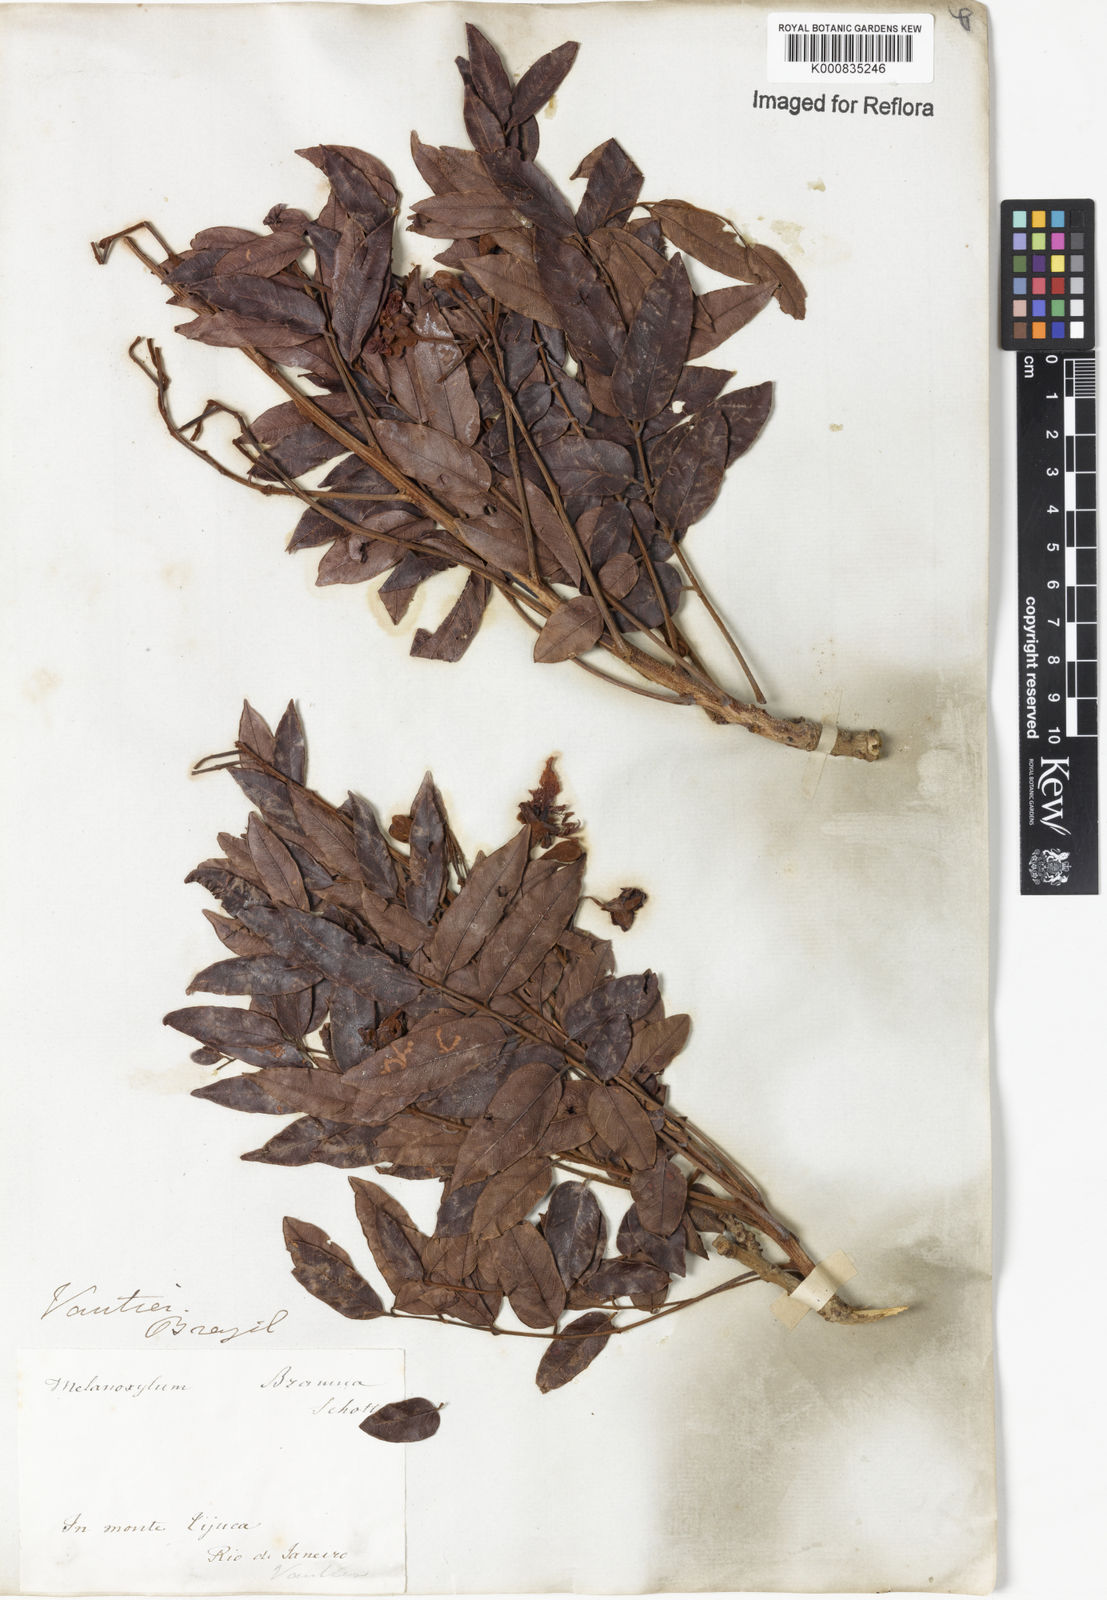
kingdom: Plantae
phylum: Tracheophyta
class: Magnoliopsida
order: Fabales
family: Fabaceae
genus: Melanoxylum
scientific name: Melanoxylum brauna
